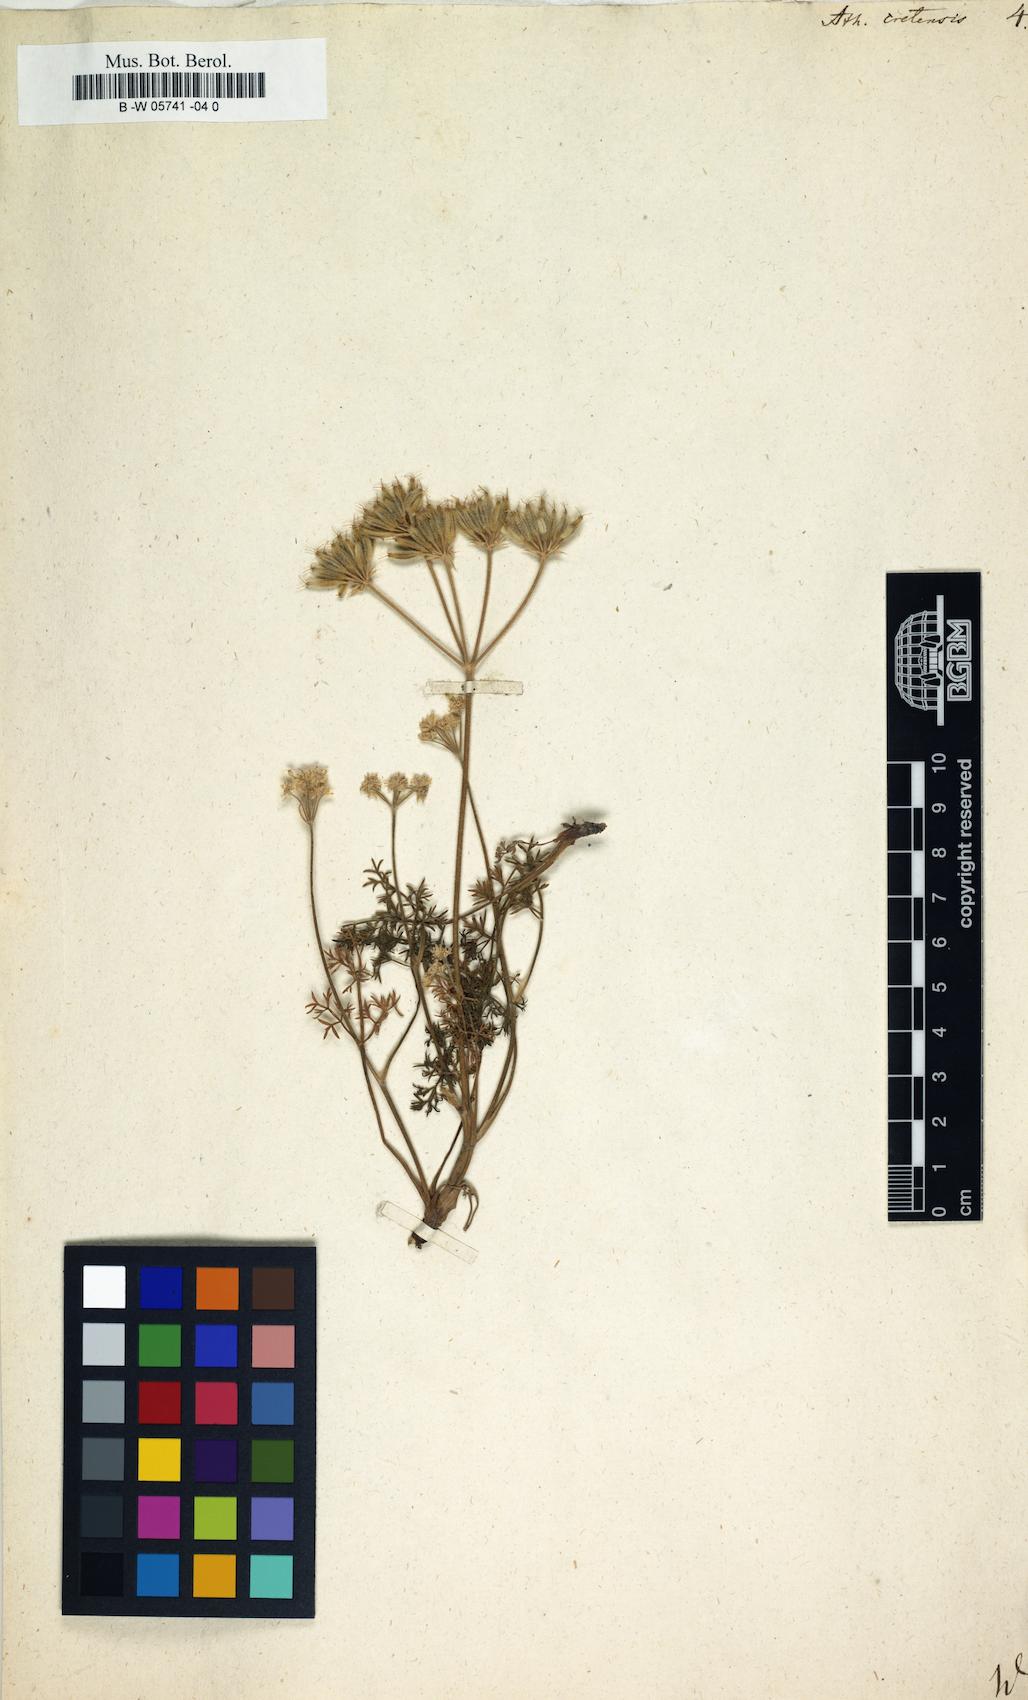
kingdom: Plantae
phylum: Tracheophyta
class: Magnoliopsida
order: Apiales
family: Apiaceae
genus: Athamanta
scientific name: Athamanta cretensis
